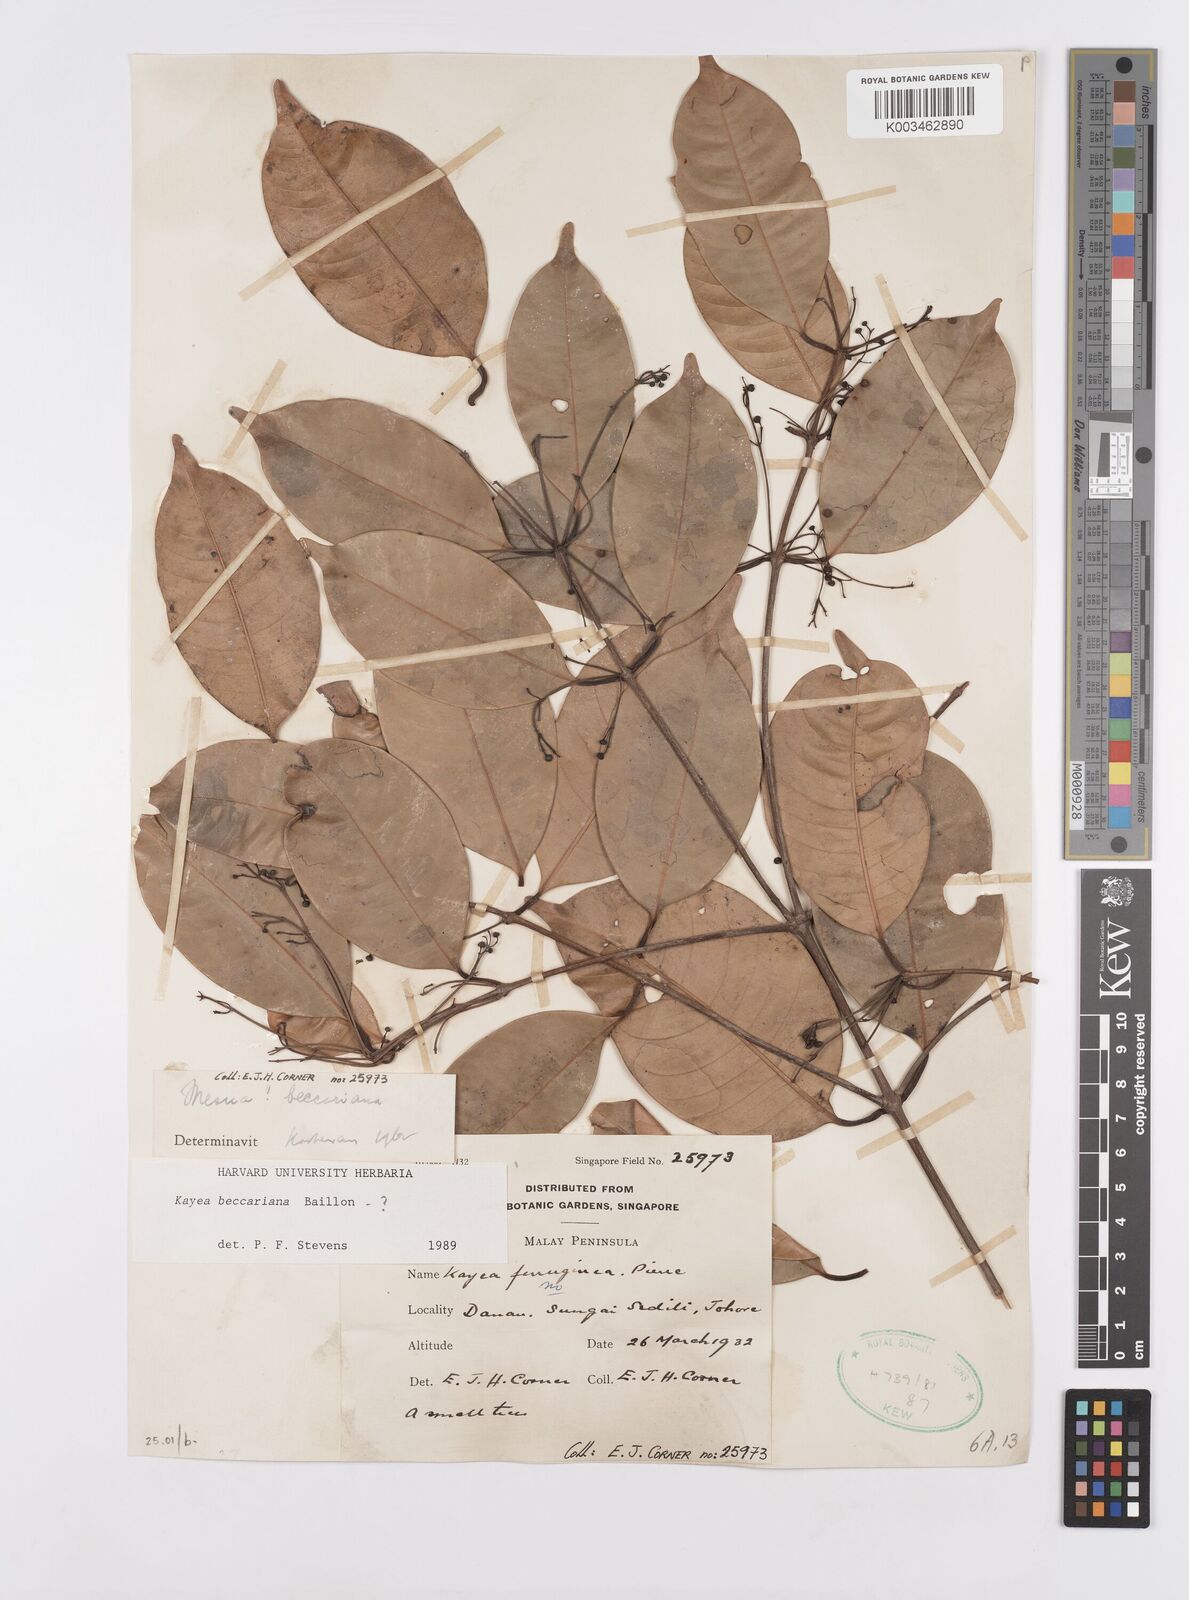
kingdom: Plantae
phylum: Tracheophyta
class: Magnoliopsida
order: Malpighiales
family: Calophyllaceae
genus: Kayea
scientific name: Kayea beccariana
